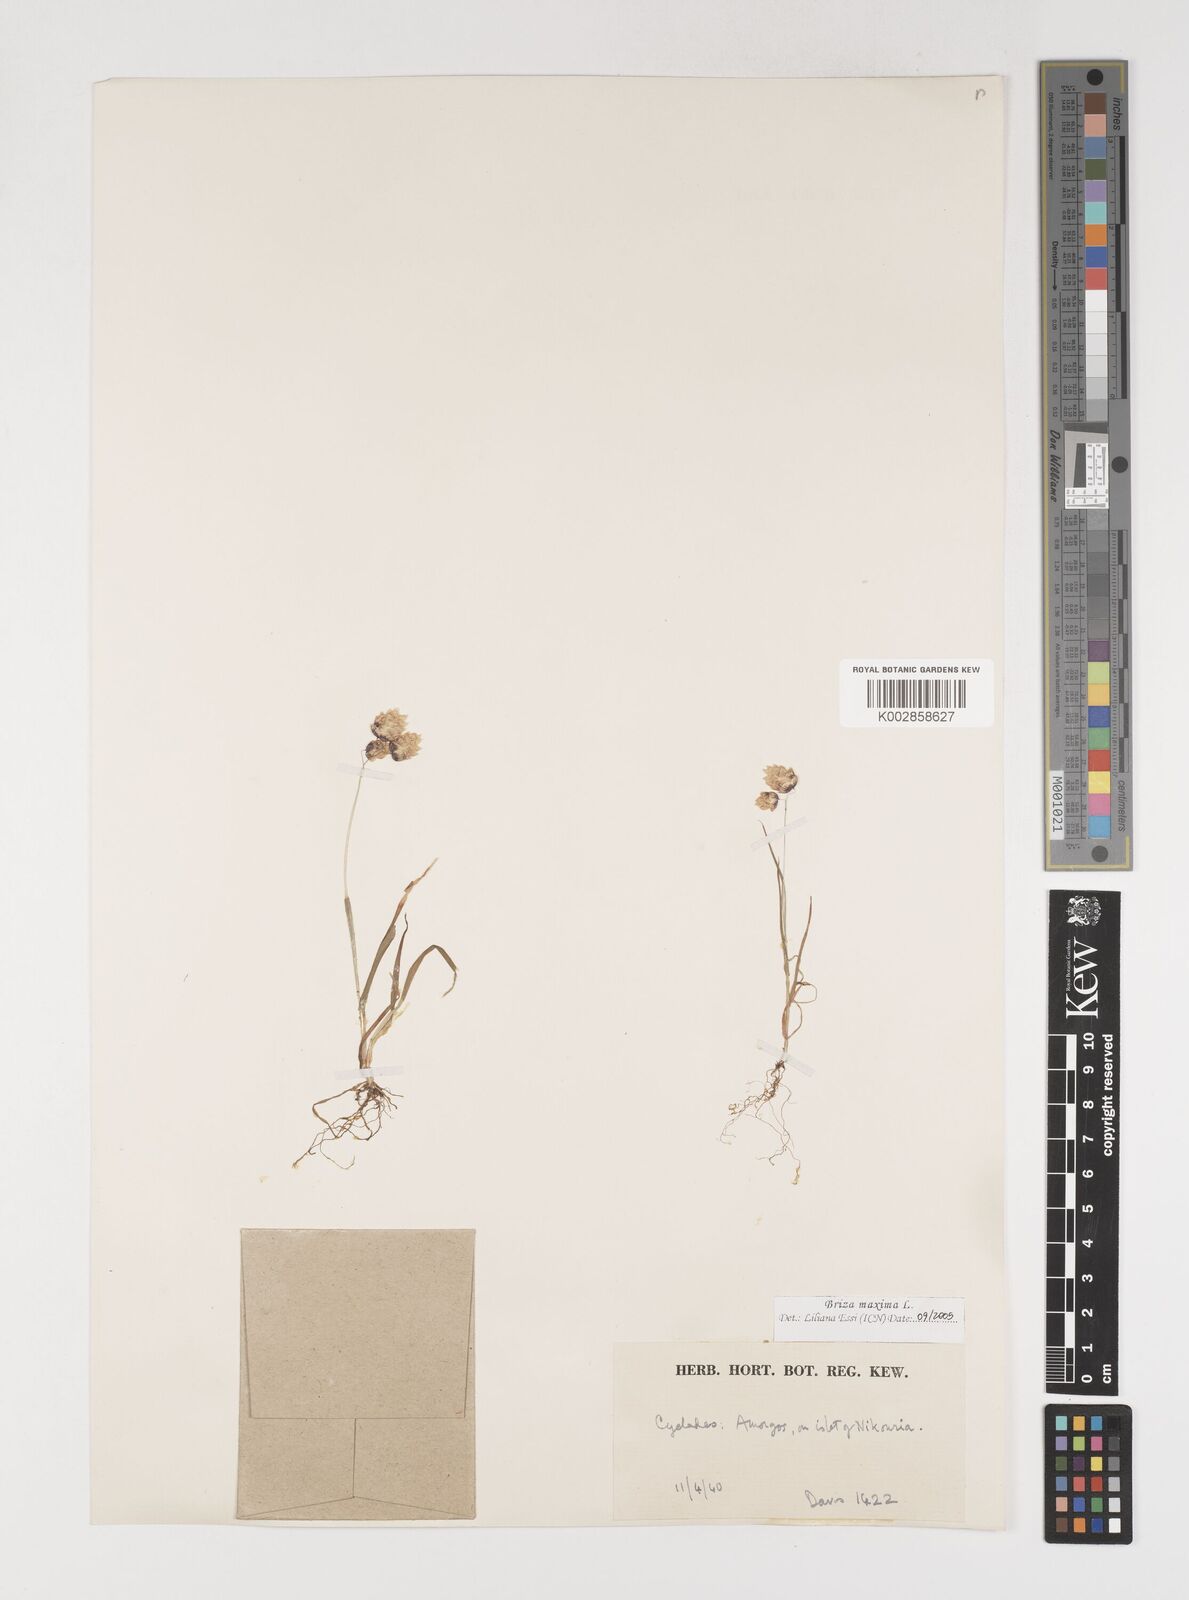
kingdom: Plantae
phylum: Tracheophyta
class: Liliopsida
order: Poales
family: Poaceae
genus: Briza
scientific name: Briza maxima
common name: Big quakinggrass
